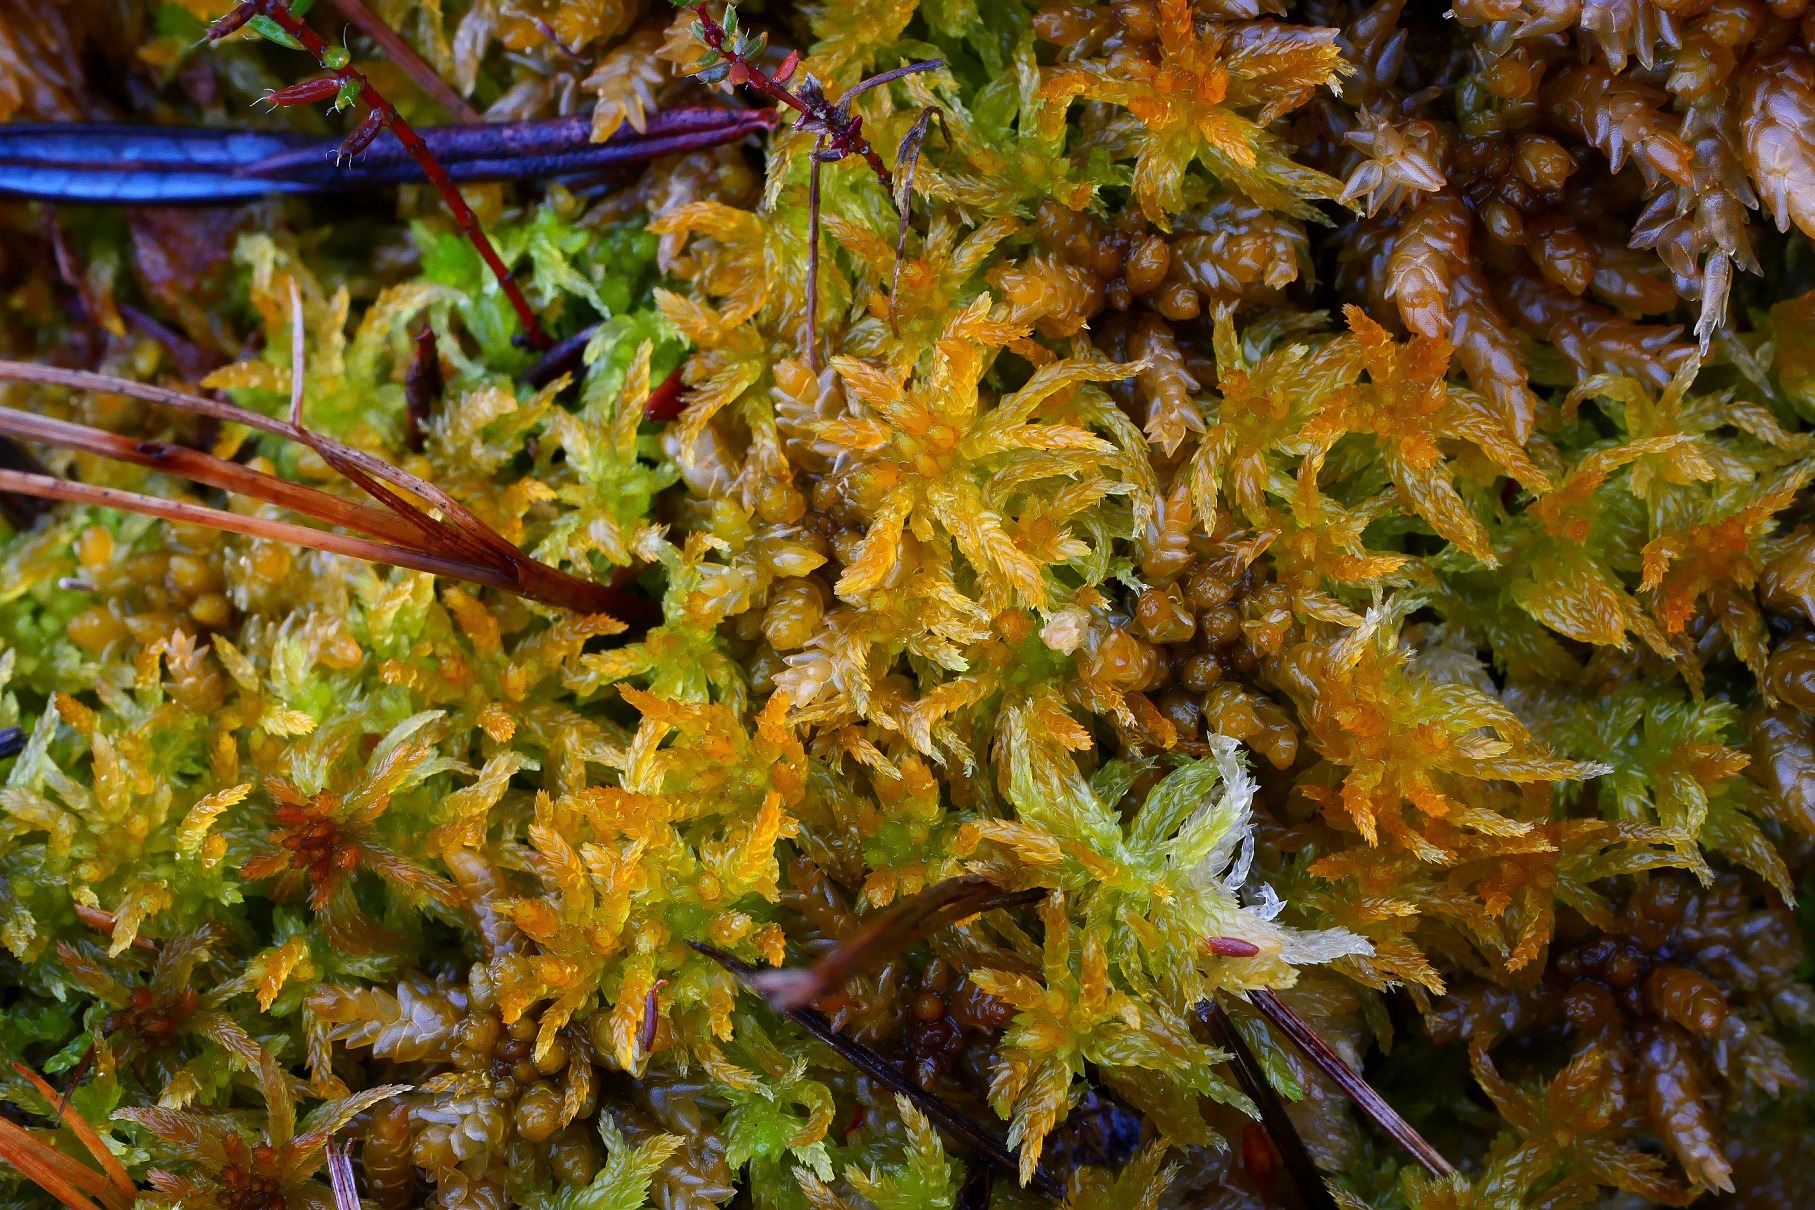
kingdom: Plantae
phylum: Bryophyta
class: Sphagnopsida
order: Sphagnales
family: Sphagnaceae
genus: Sphagnum
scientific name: Sphagnum tenellum
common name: Skebladet tørvemos
